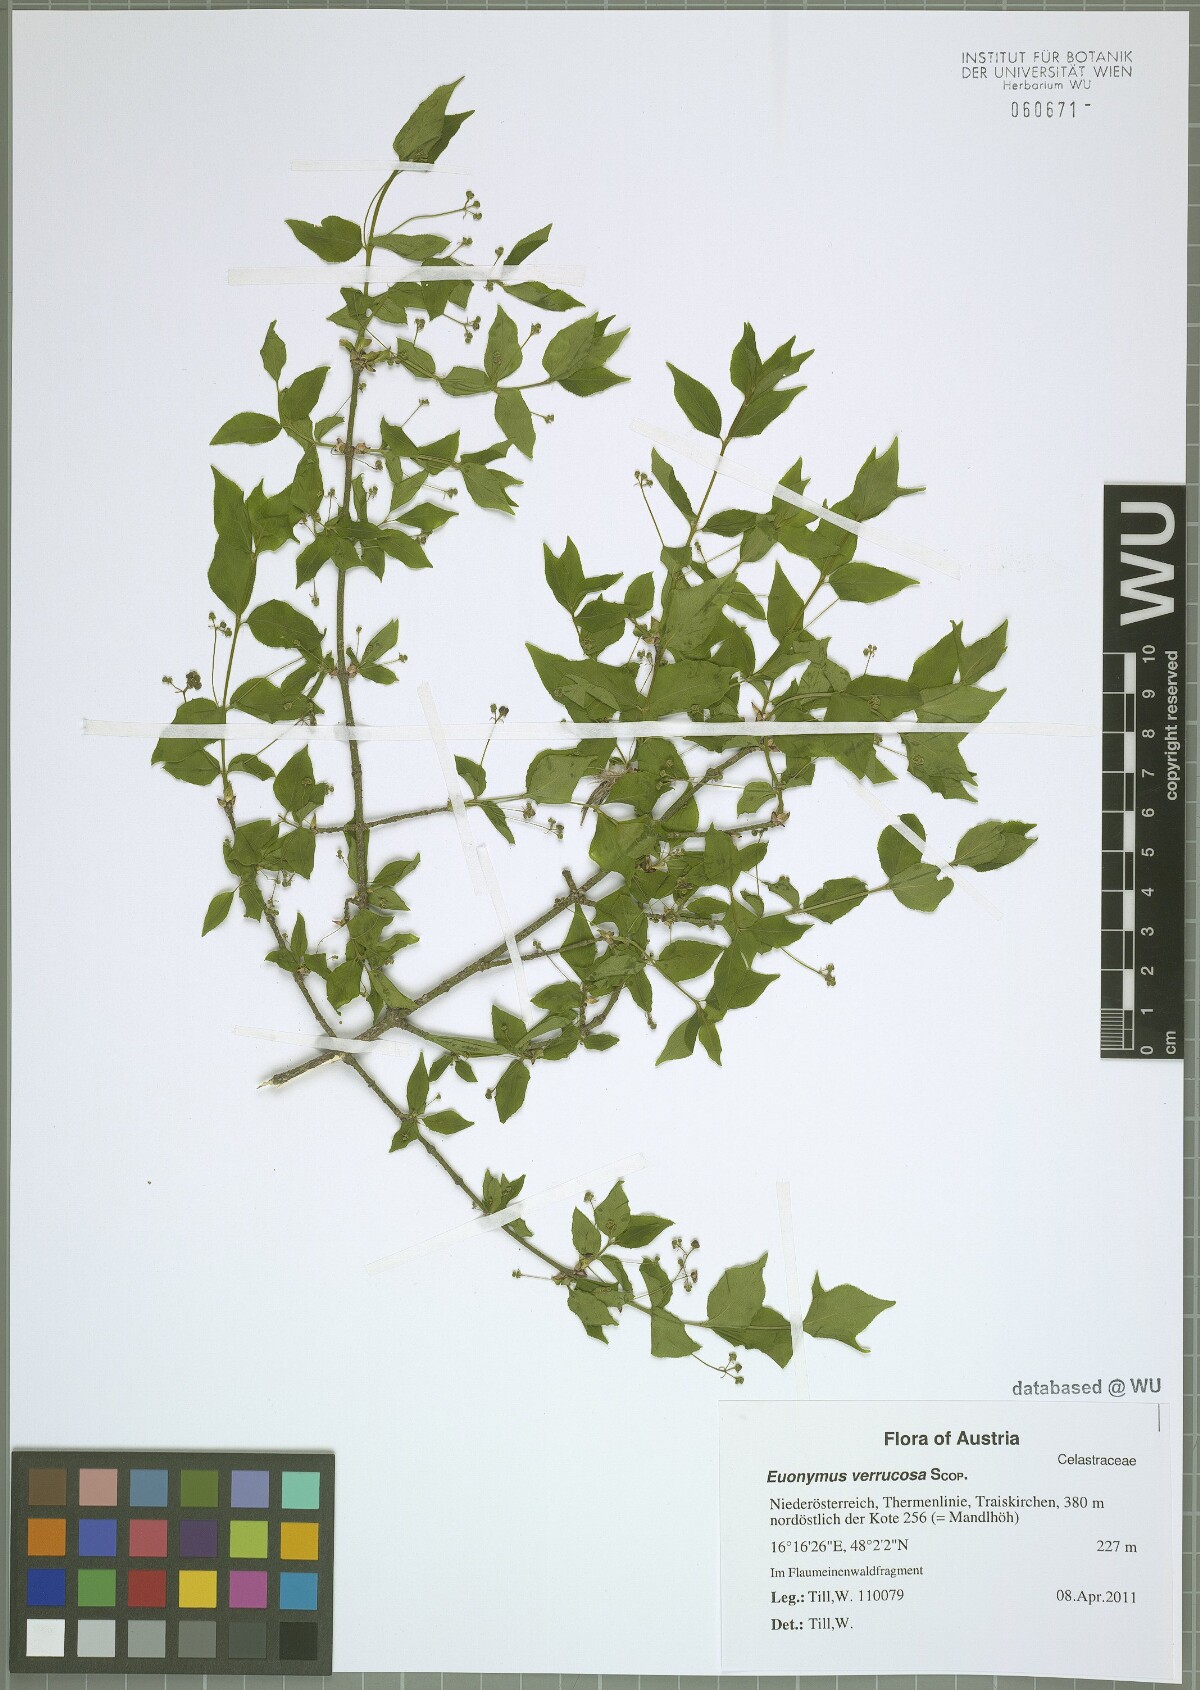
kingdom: Plantae
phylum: Tracheophyta
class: Magnoliopsida
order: Celastrales
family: Celastraceae
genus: Euonymus
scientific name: Euonymus verrucosus
